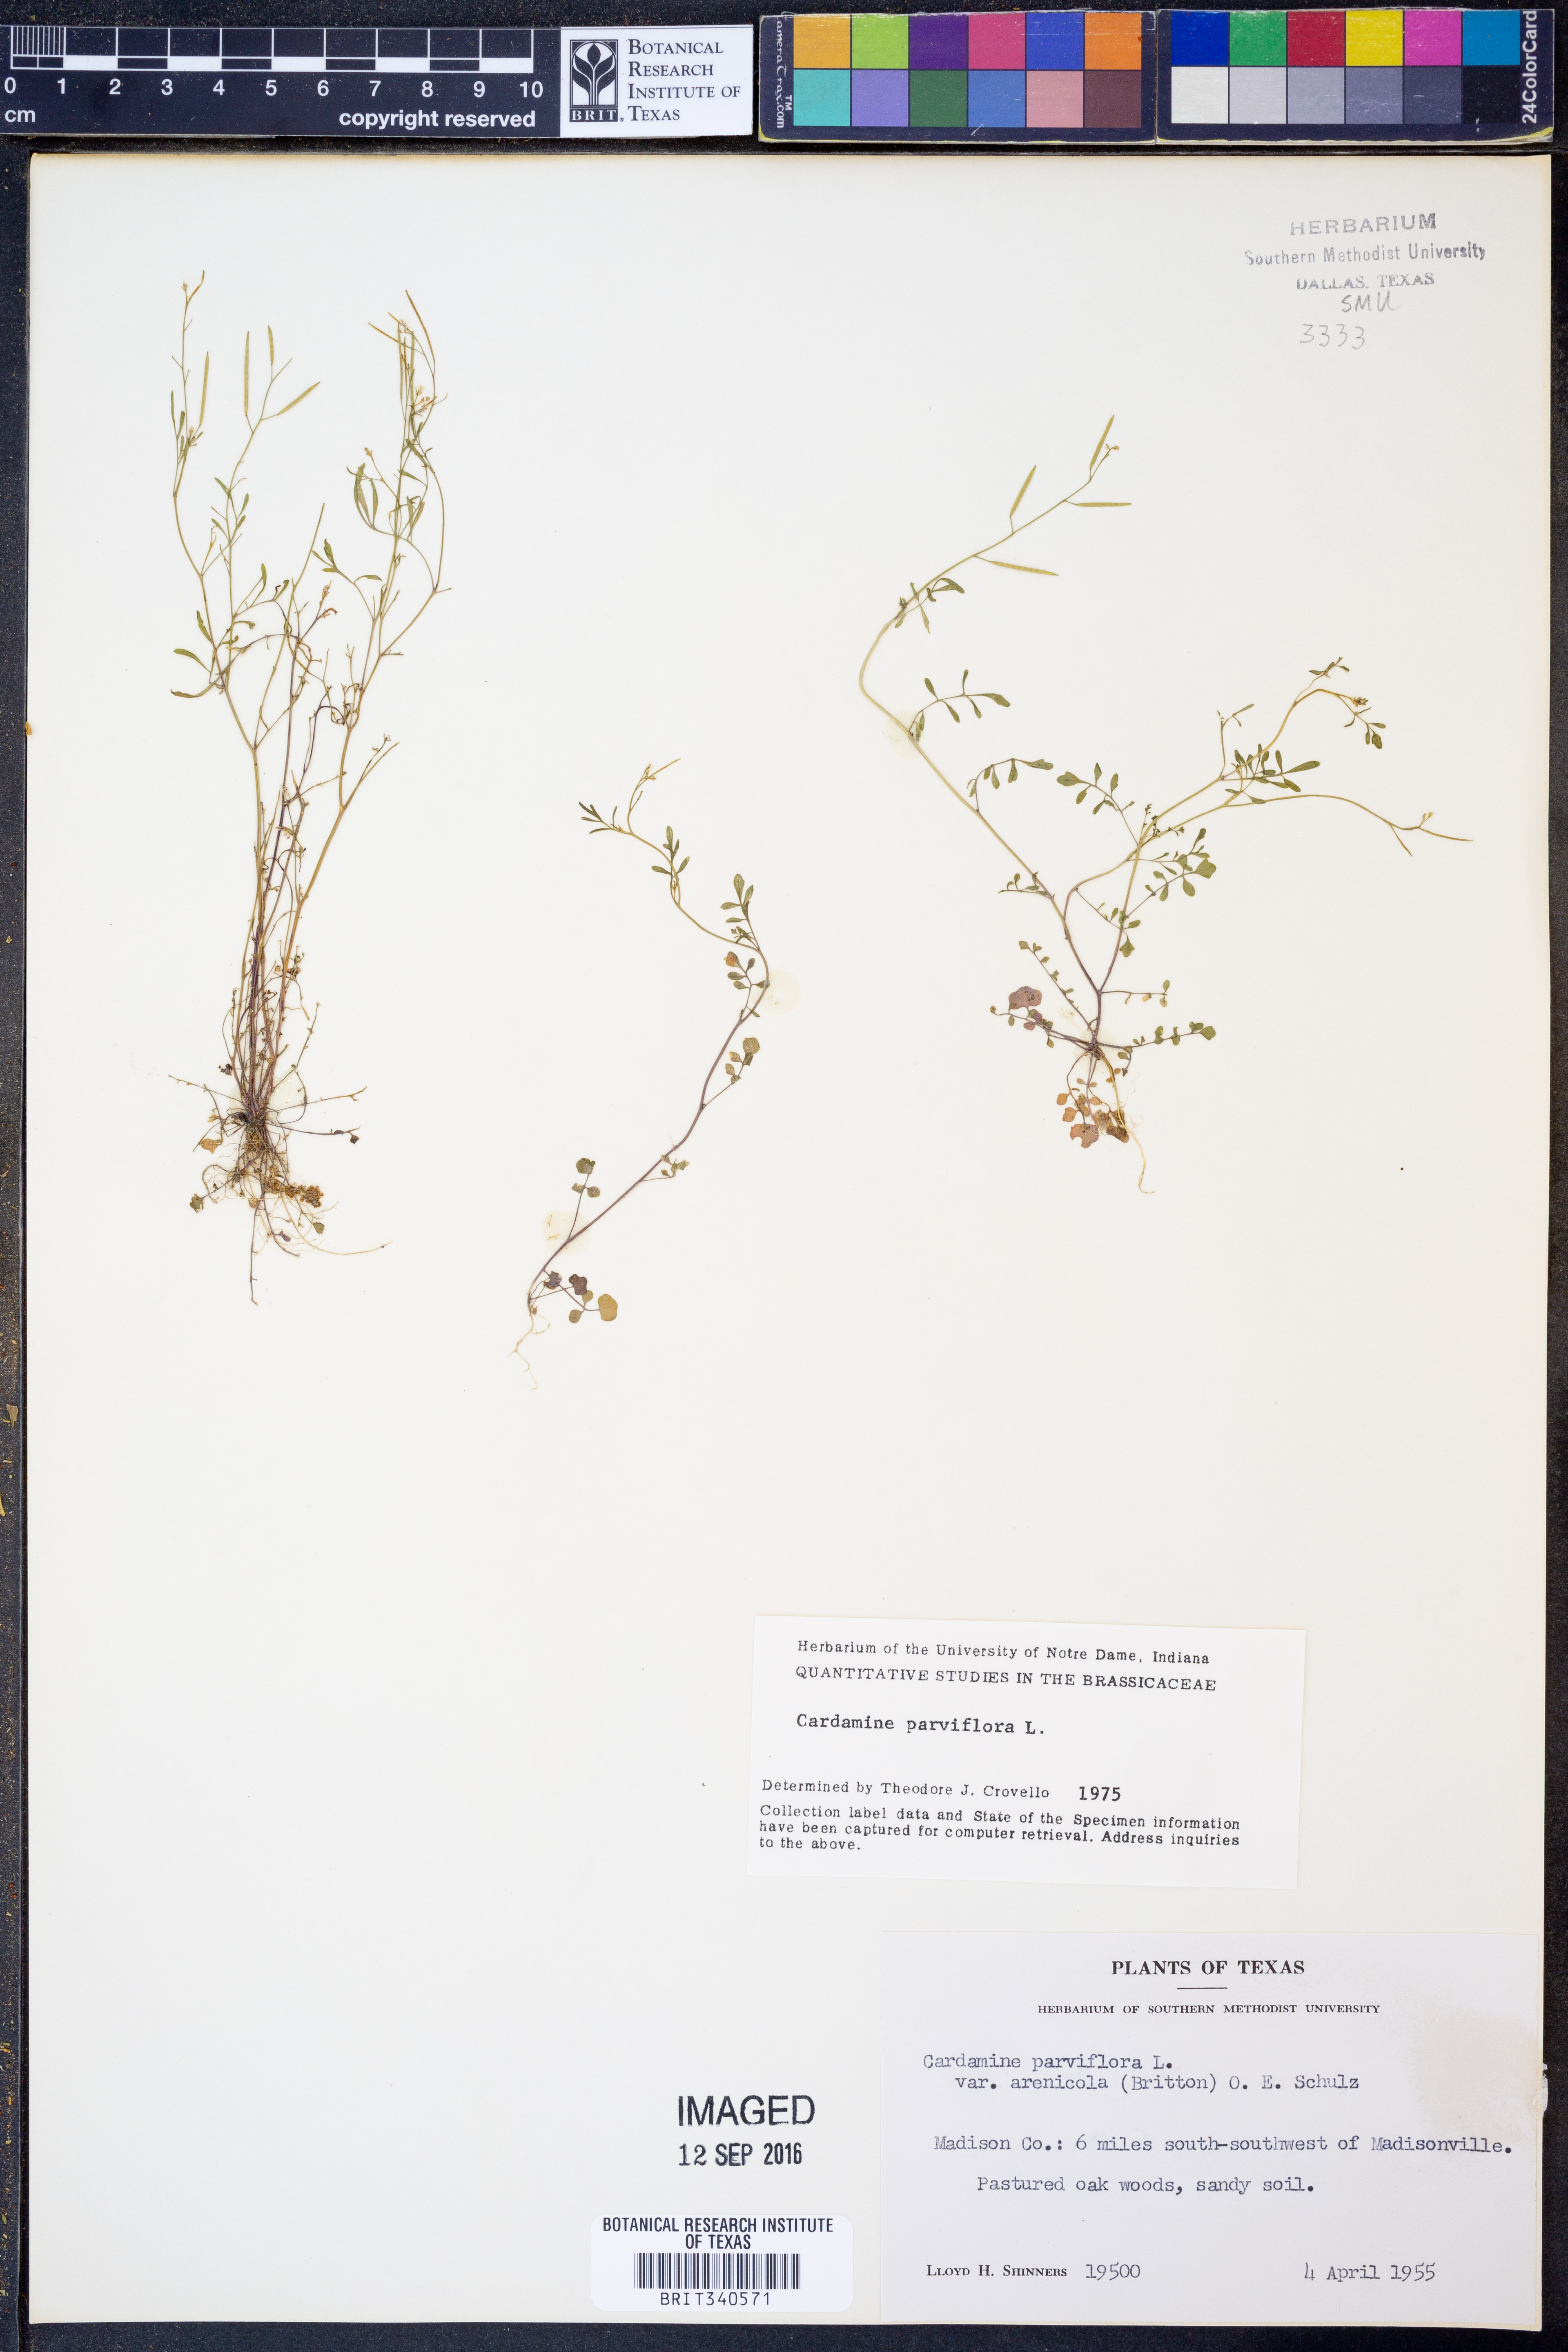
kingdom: Plantae
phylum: Tracheophyta
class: Magnoliopsida
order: Brassicales
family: Brassicaceae
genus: Cardamine
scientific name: Cardamine parviflora
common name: Sand bittercress
